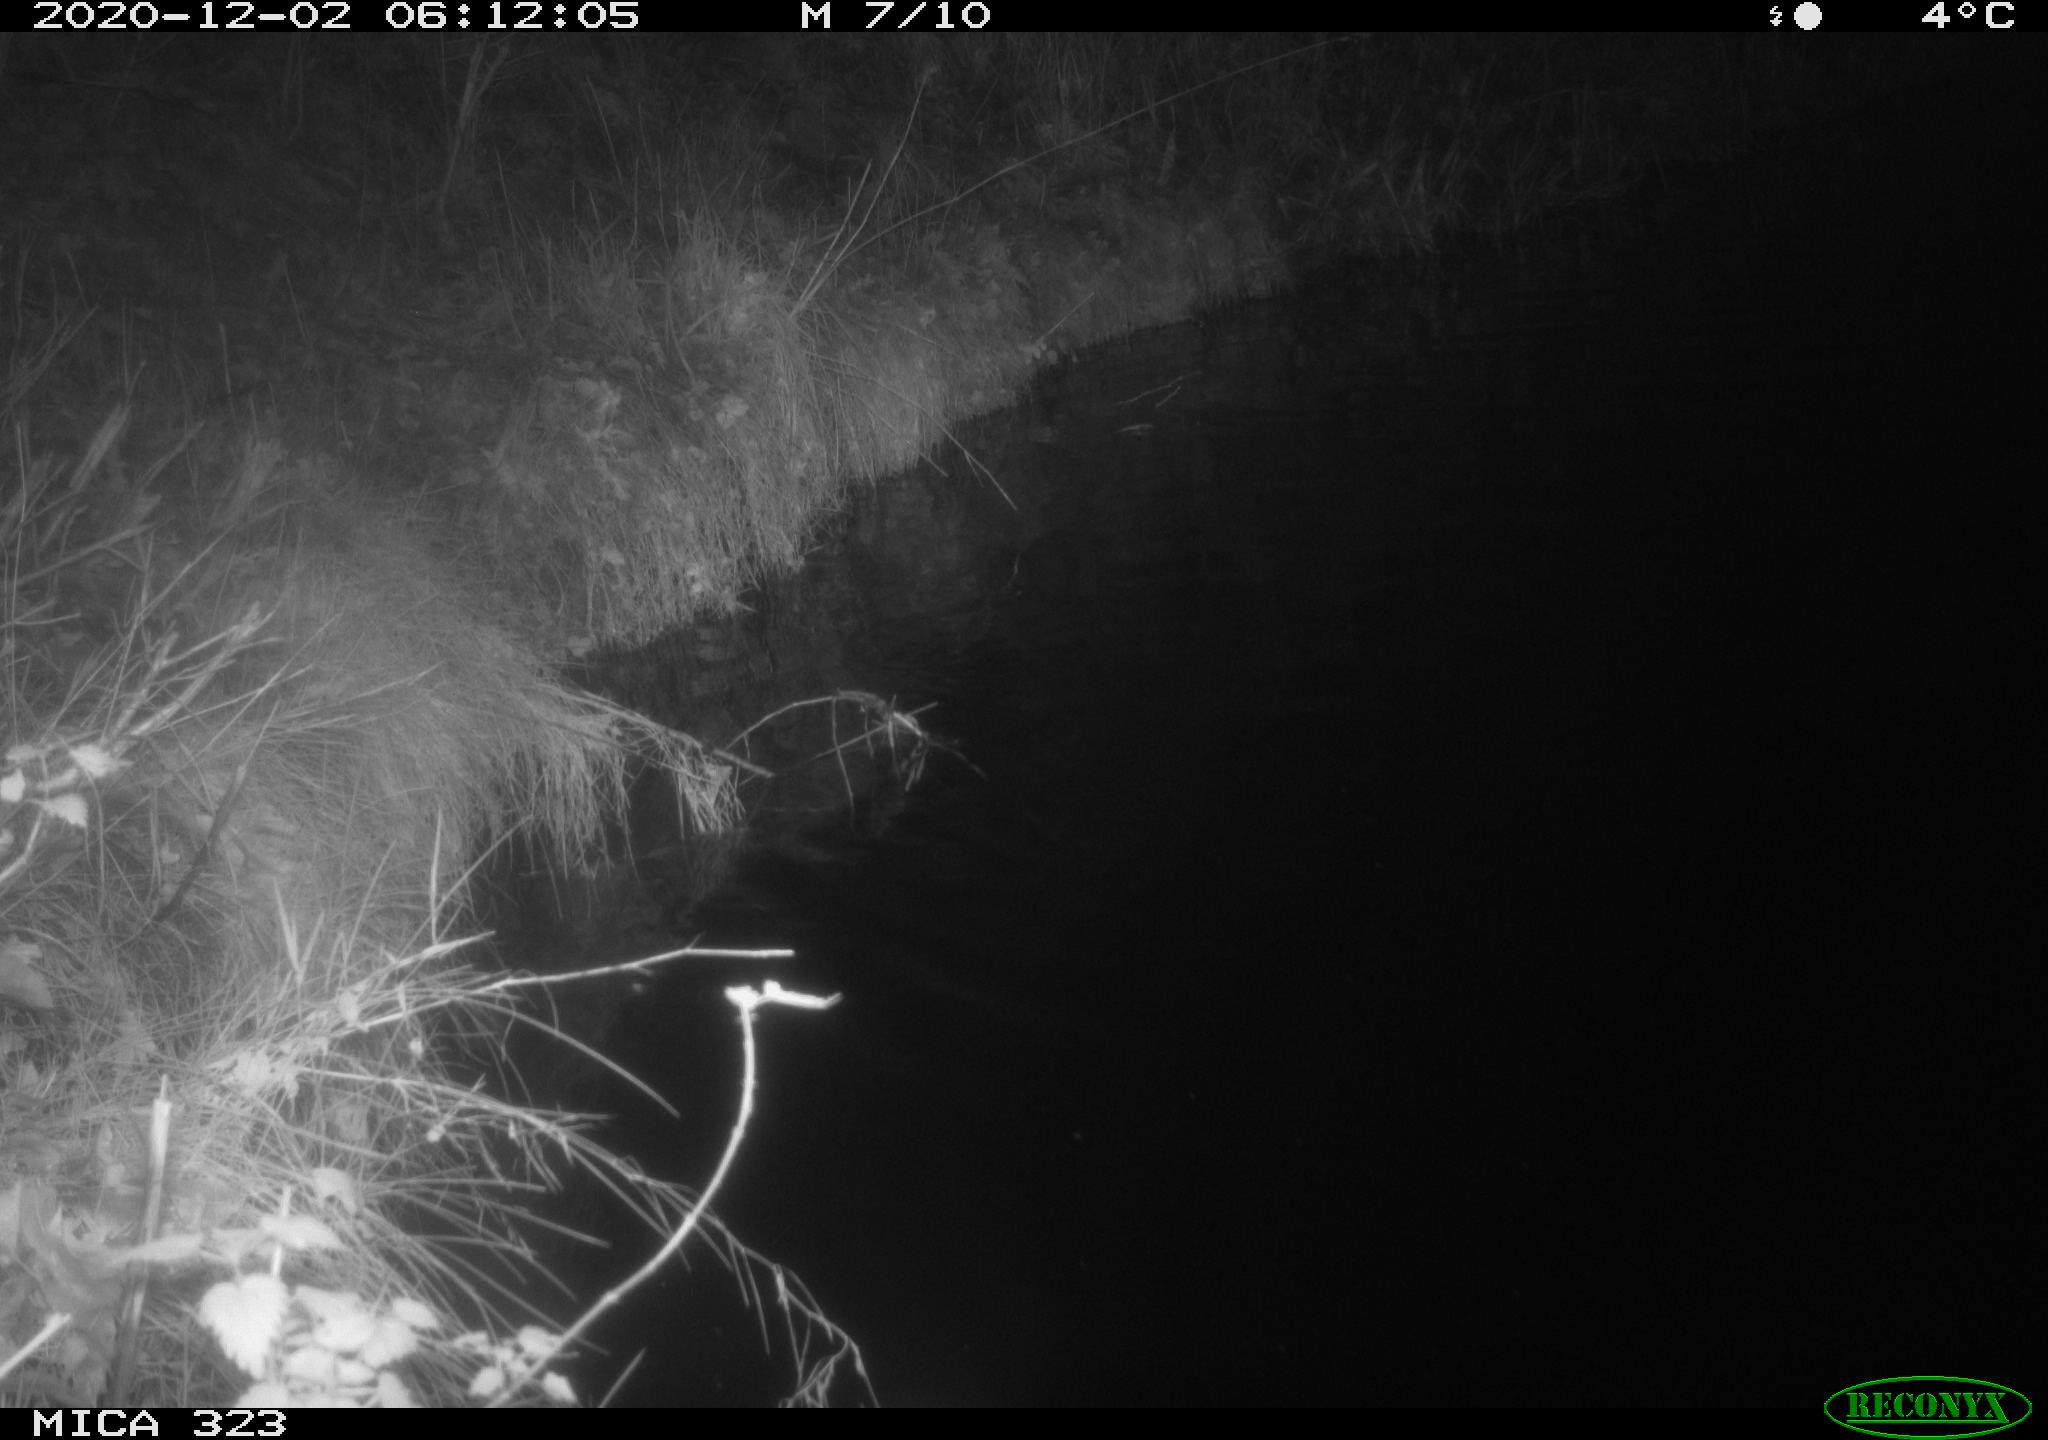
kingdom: Animalia
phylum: Chordata
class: Mammalia
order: Rodentia
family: Myocastoridae
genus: Myocastor
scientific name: Myocastor coypus
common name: Coypu
